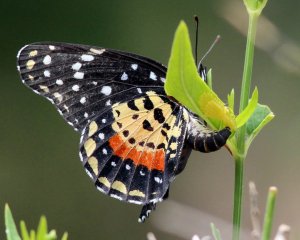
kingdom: Animalia
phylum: Arthropoda
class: Insecta
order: Lepidoptera
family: Nymphalidae
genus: Chlosyne
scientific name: Chlosyne janais
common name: Crimson Patch
